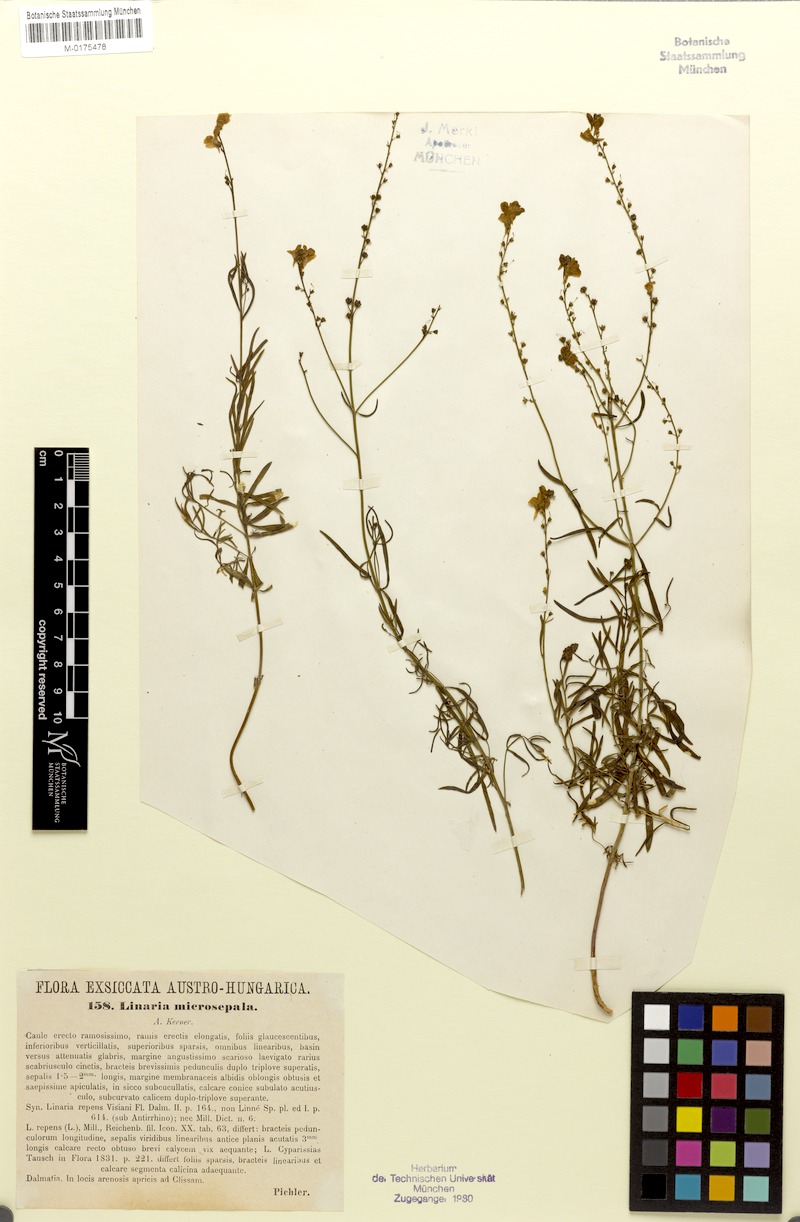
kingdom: Plantae
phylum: Tracheophyta
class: Magnoliopsida
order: Lamiales
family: Plantaginaceae
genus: Linaria
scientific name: Linaria microsepala
